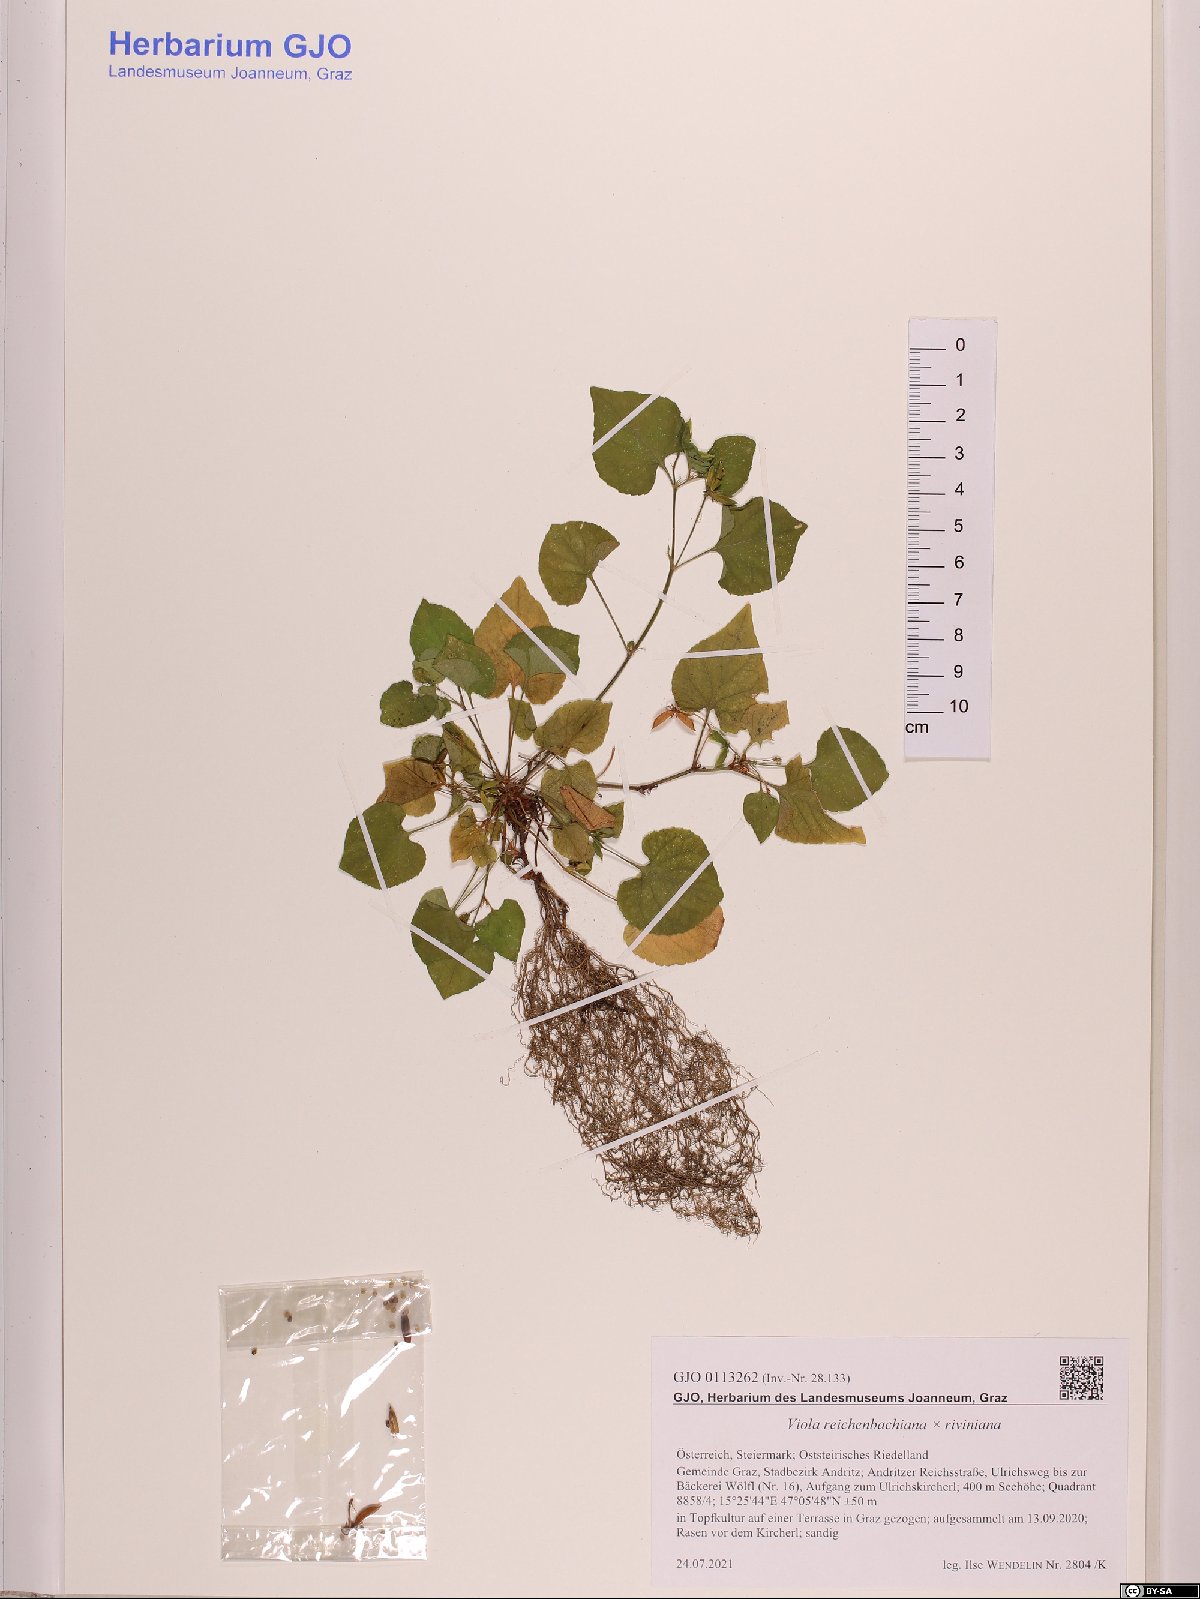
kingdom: Plantae
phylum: Tracheophyta
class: Magnoliopsida
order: Malpighiales
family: Violaceae
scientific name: Violaceae
